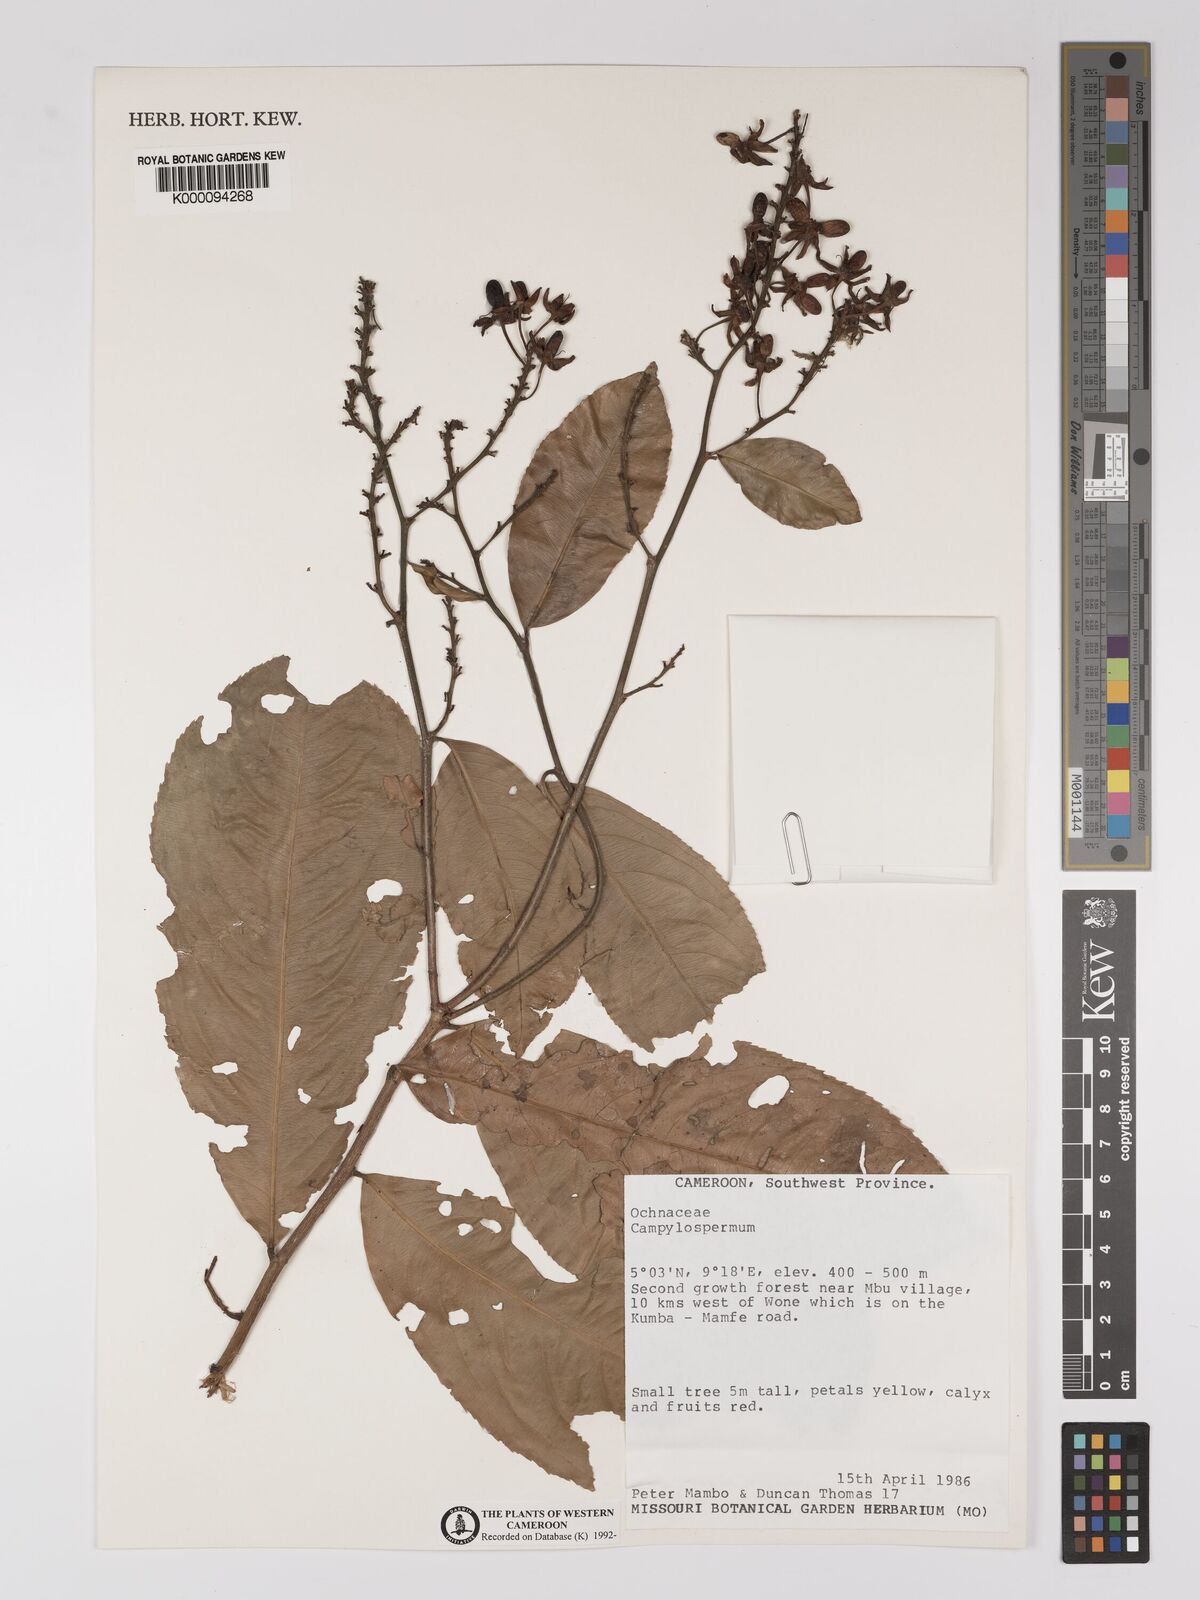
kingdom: Plantae
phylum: Tracheophyta
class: Magnoliopsida
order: Malpighiales
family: Ochnaceae
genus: Campylospermum
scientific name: Campylospermum
